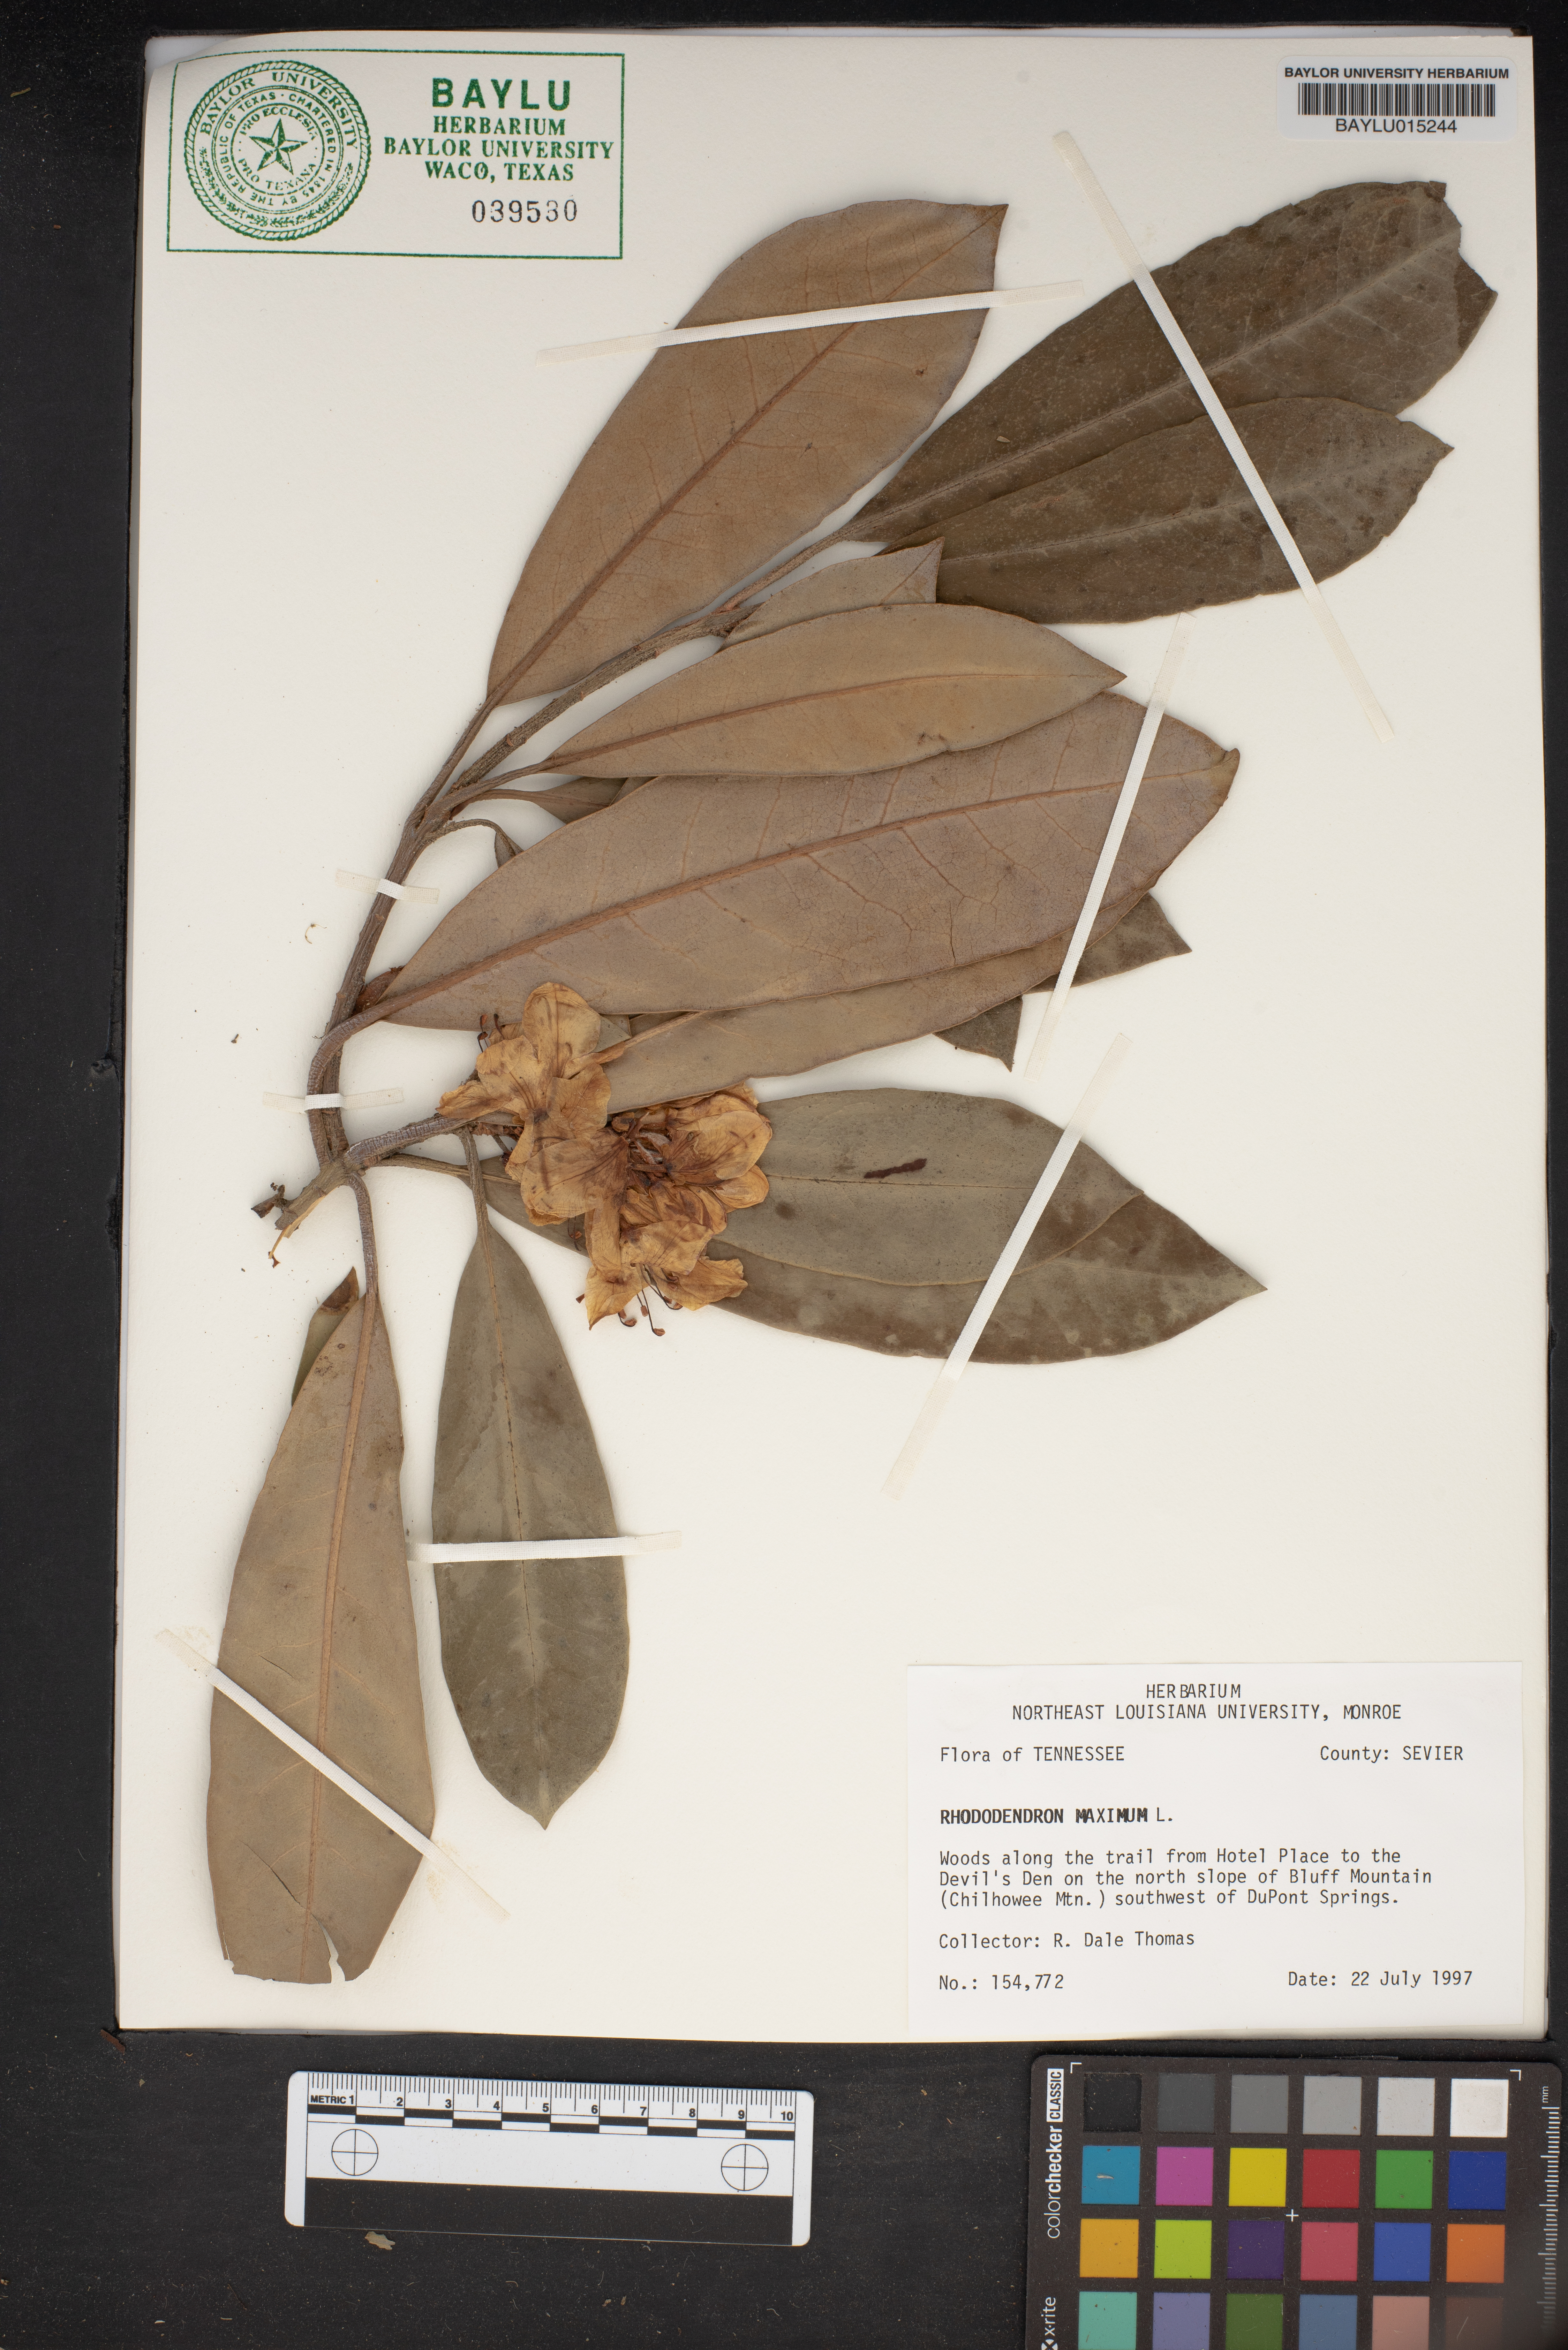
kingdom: Plantae
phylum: Tracheophyta
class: Magnoliopsida
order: Ericales
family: Ericaceae
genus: Rhododendron
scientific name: Rhododendron maximum
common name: Great rhododendron
